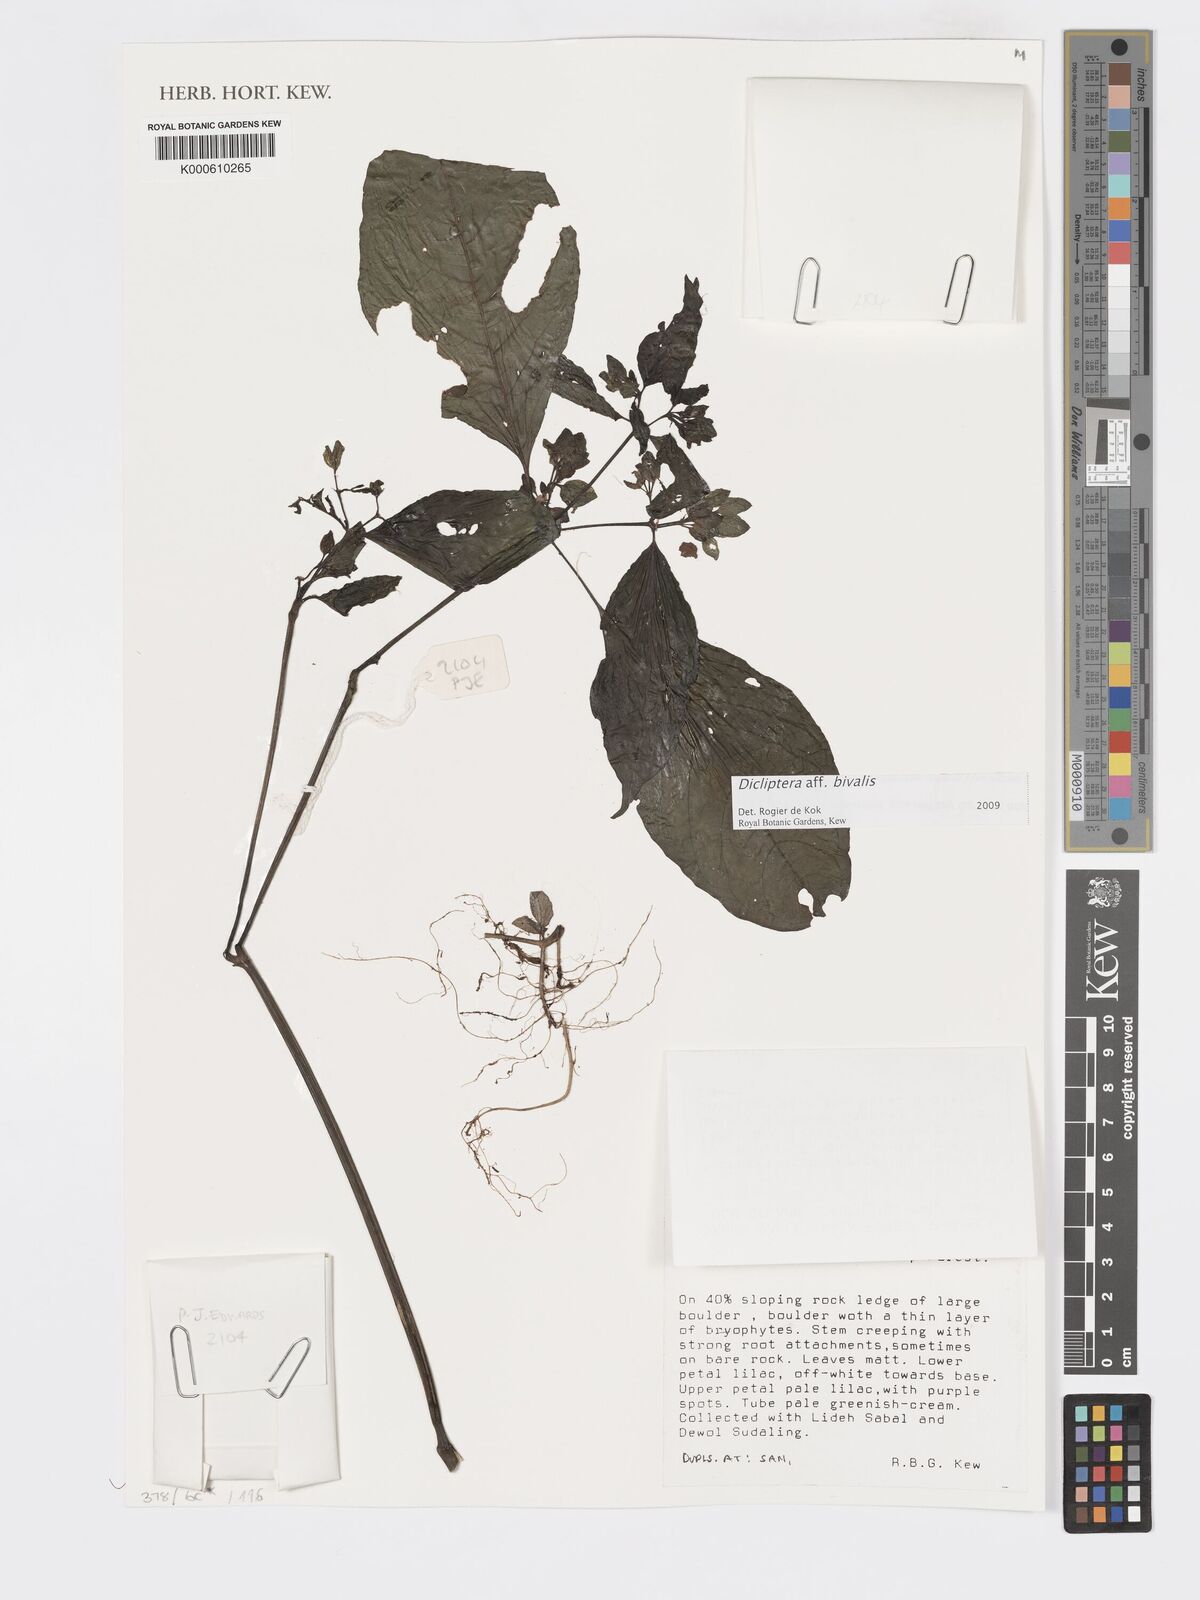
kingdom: Plantae
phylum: Tracheophyta
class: Magnoliopsida
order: Lamiales
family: Acanthaceae
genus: Dicliptera
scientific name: Dicliptera
